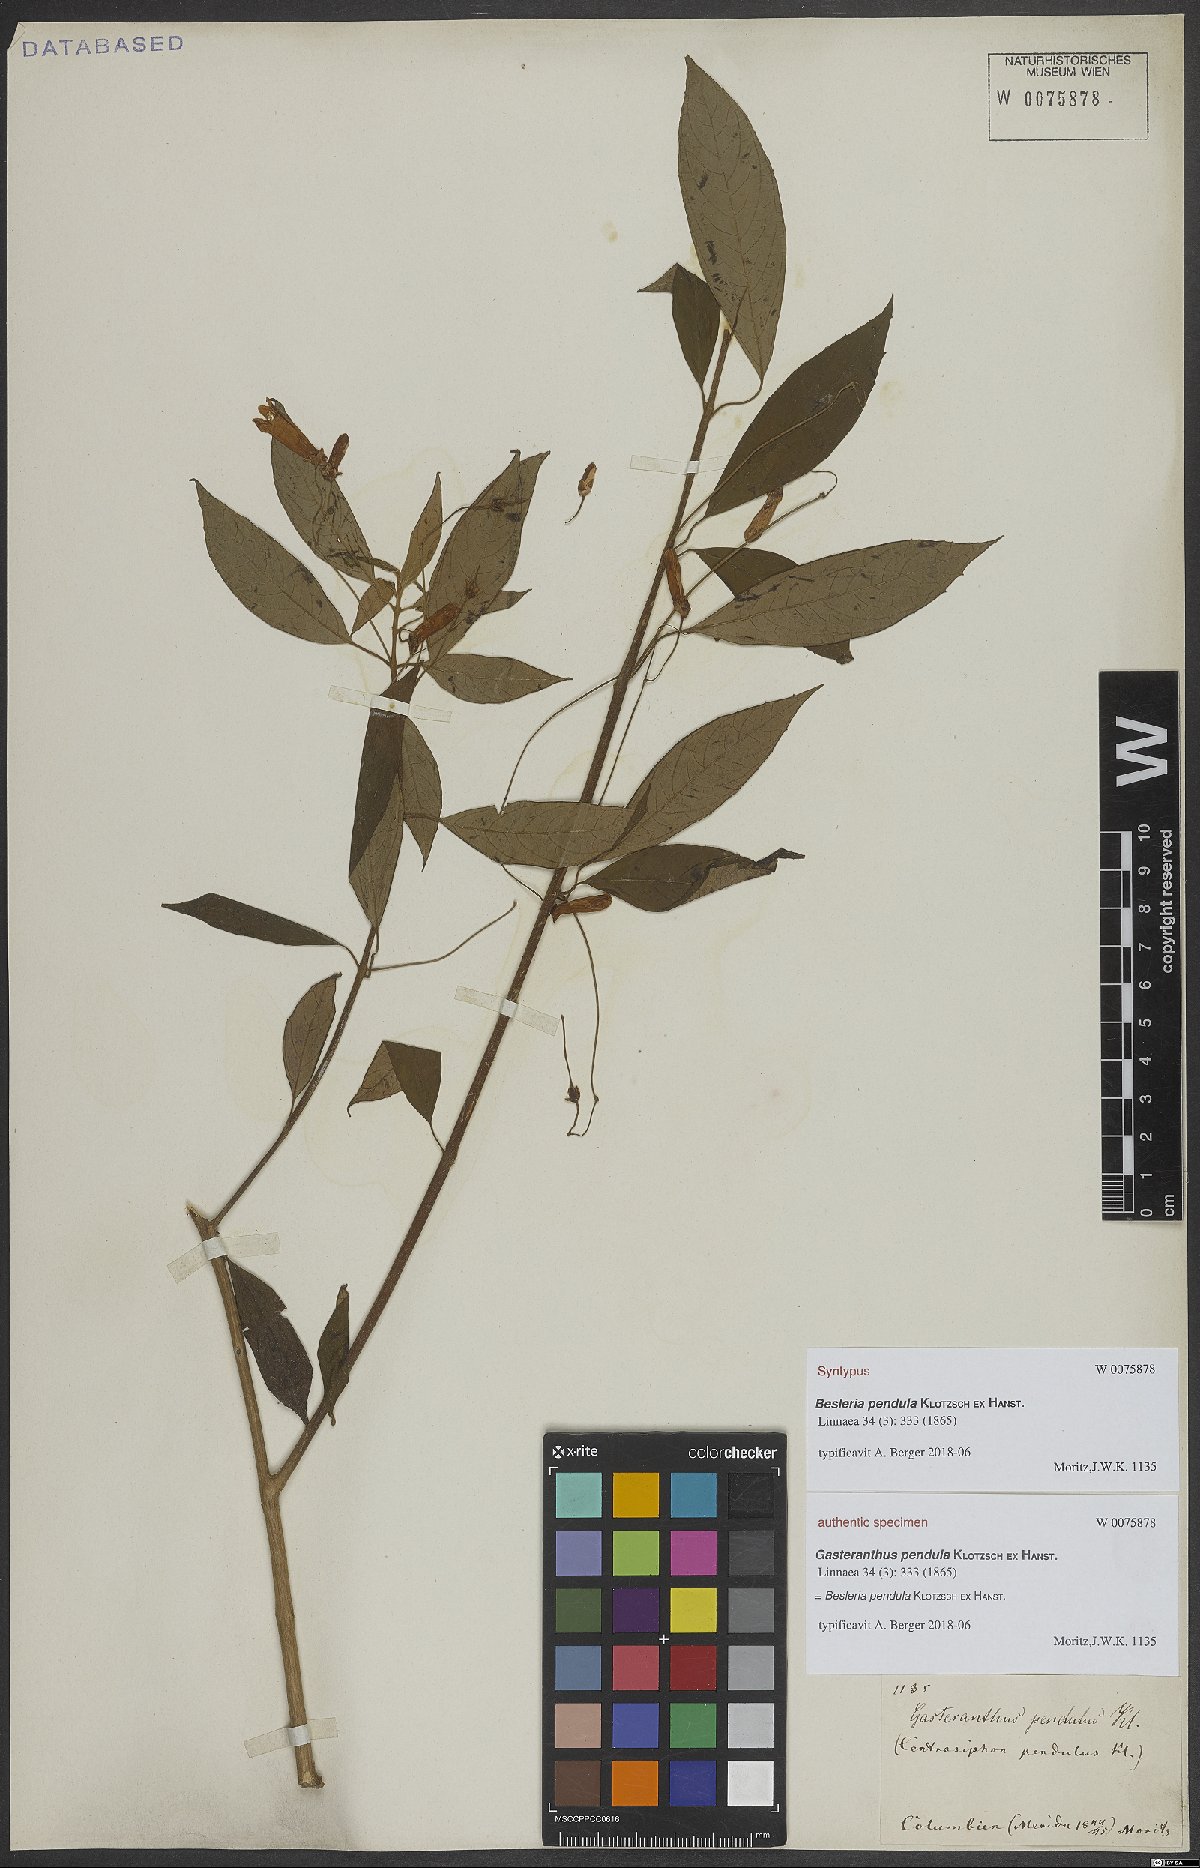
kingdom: Plantae
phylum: Tracheophyta
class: Magnoliopsida
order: Lamiales
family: Gesneriaceae
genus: Besleria
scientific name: Besleria pendula
